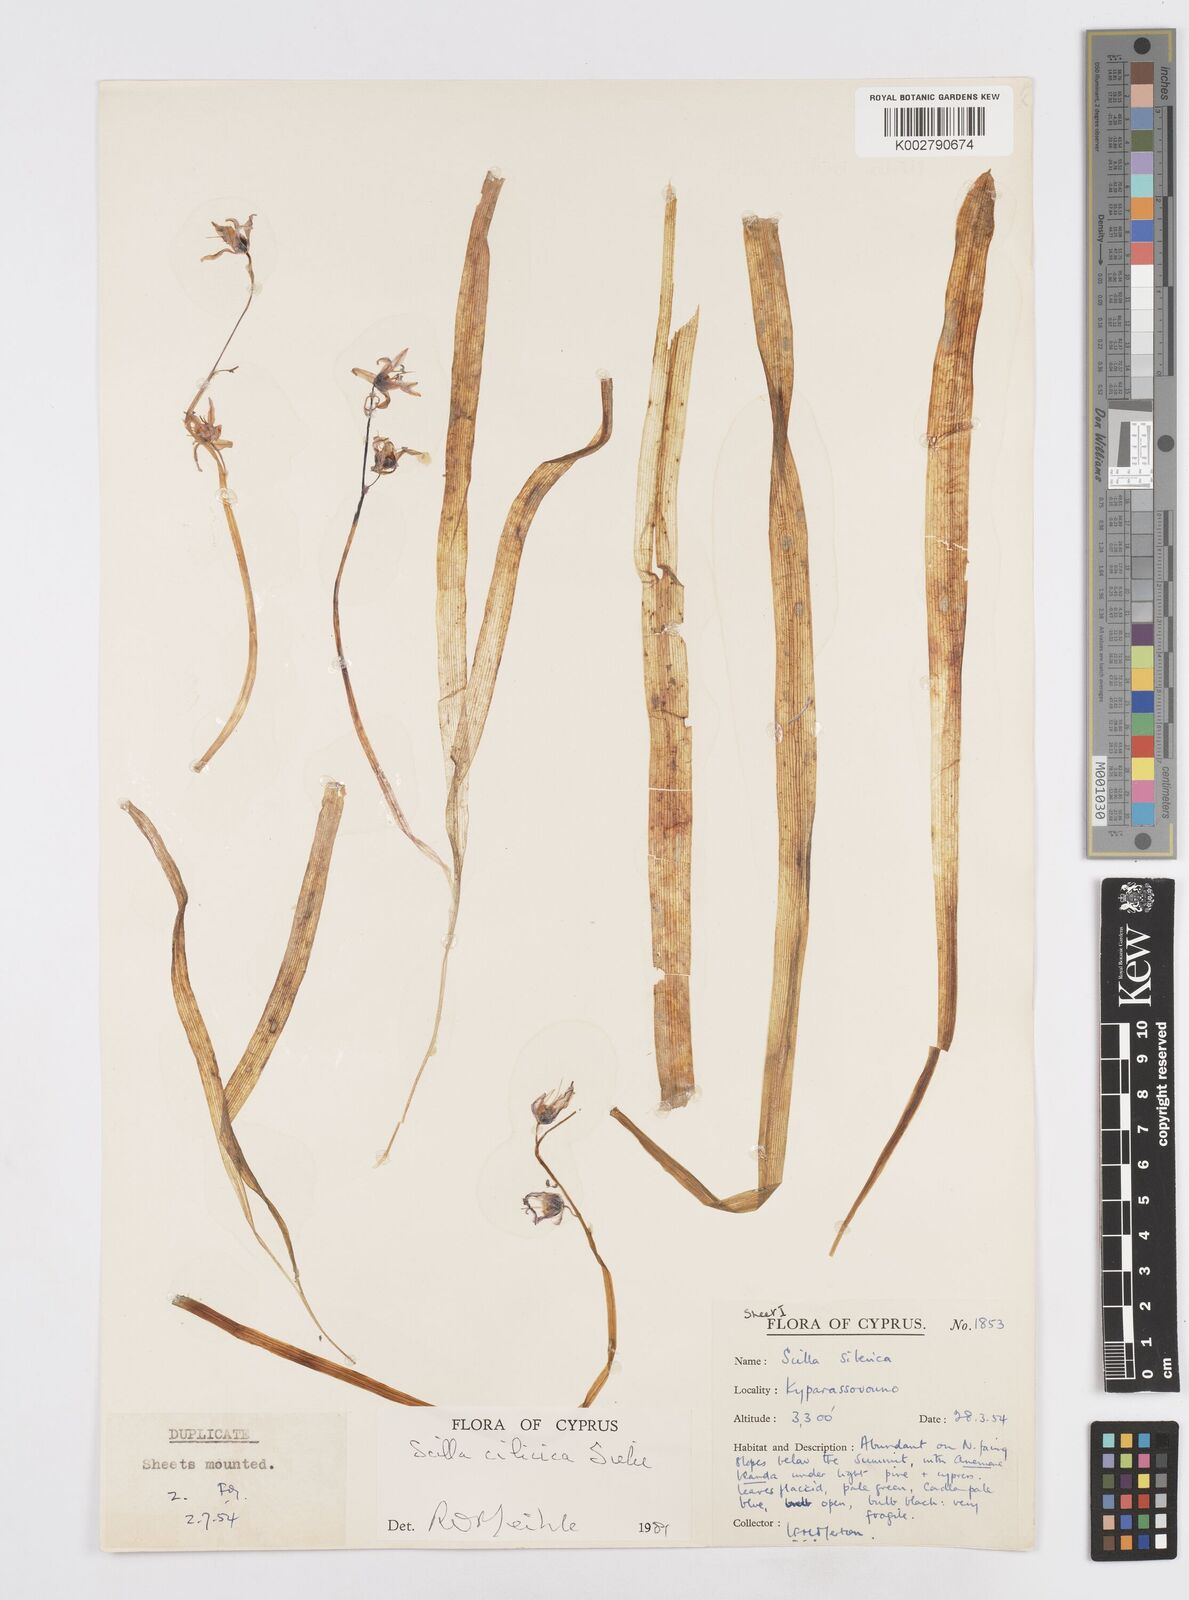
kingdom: Plantae
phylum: Tracheophyta
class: Liliopsida
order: Asparagales
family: Asparagaceae
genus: Scilla
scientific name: Scilla siberica
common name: Siberian squill
